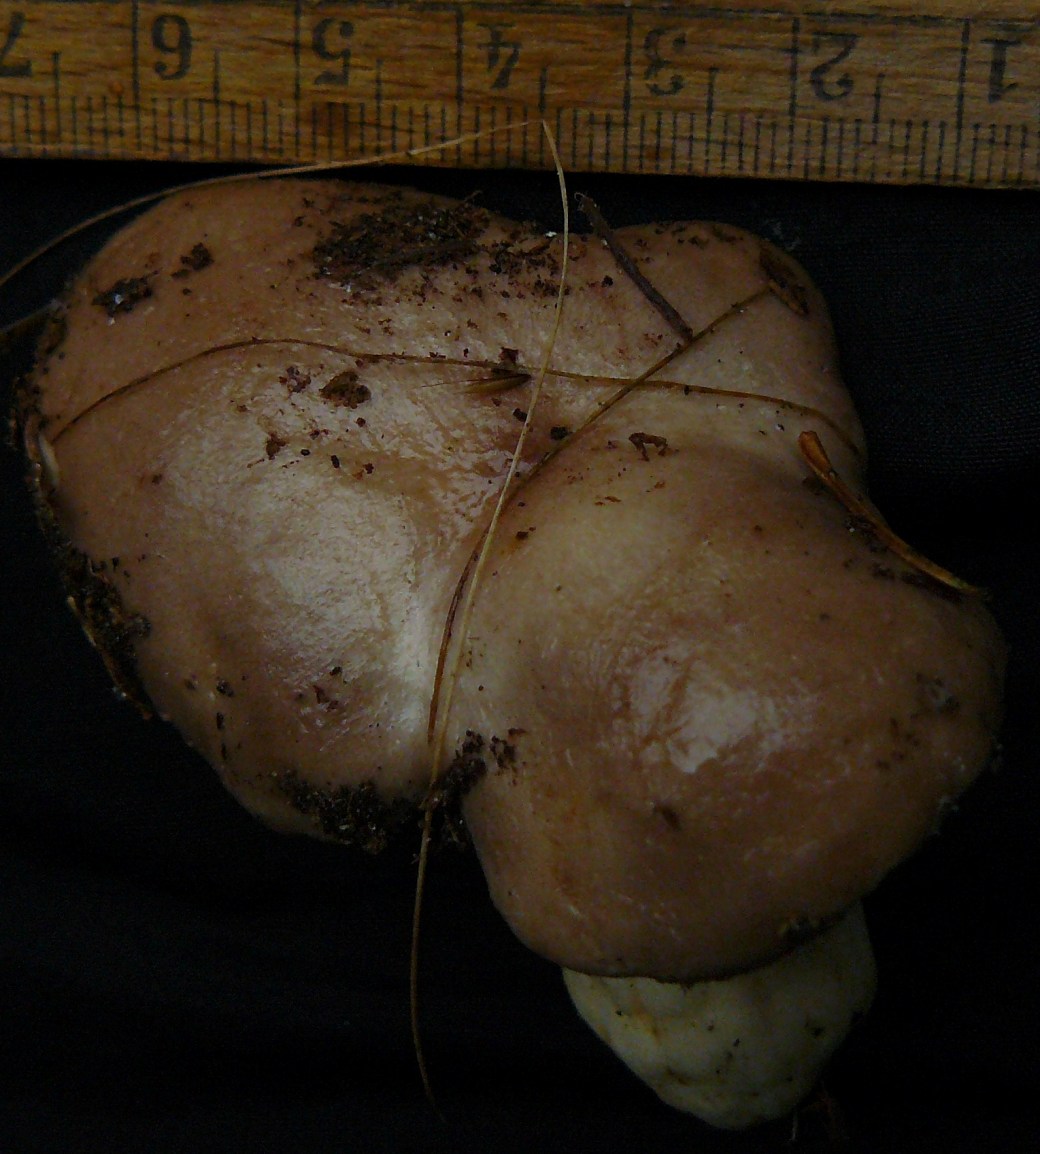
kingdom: Fungi
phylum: Basidiomycota
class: Agaricomycetes
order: Russulales
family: Russulaceae
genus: Lactarius
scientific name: Lactarius albocarneus
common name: ædelgran-mælkehat
